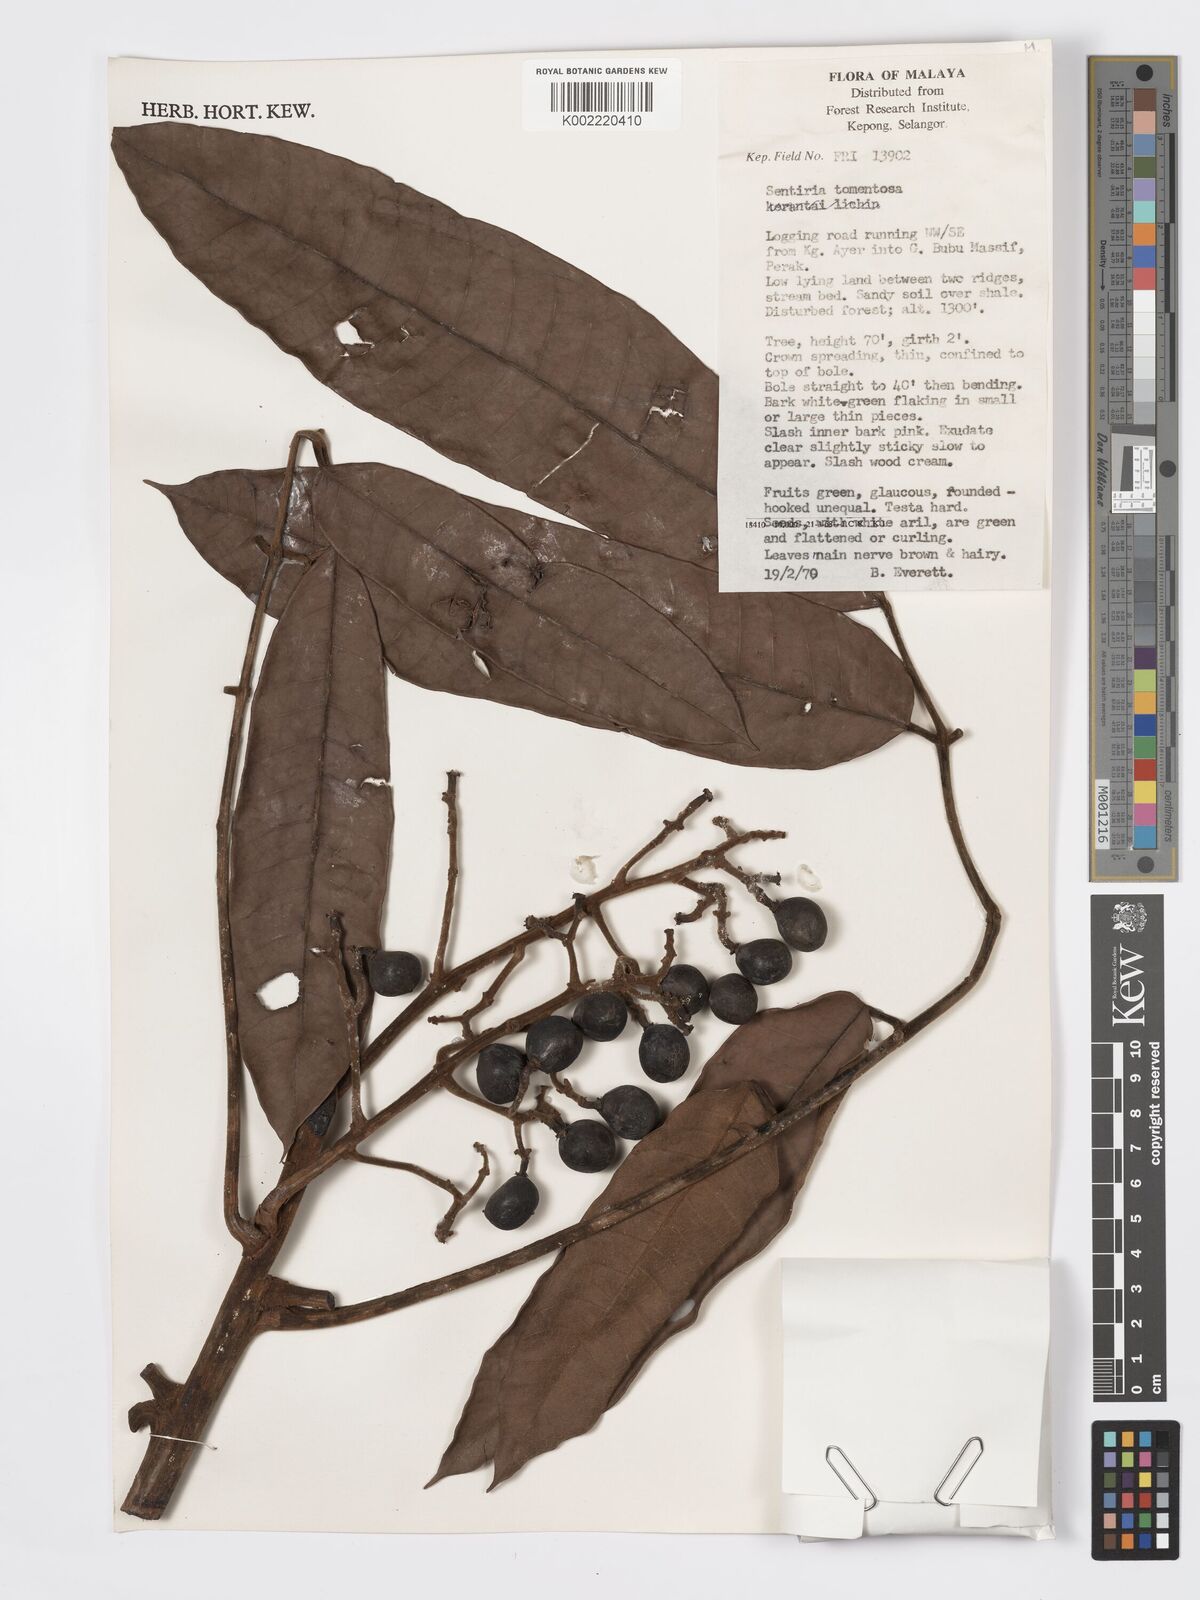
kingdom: Plantae
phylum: Tracheophyta
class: Magnoliopsida
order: Sapindales
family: Burseraceae
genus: Santiria
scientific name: Santiria tomentosa
